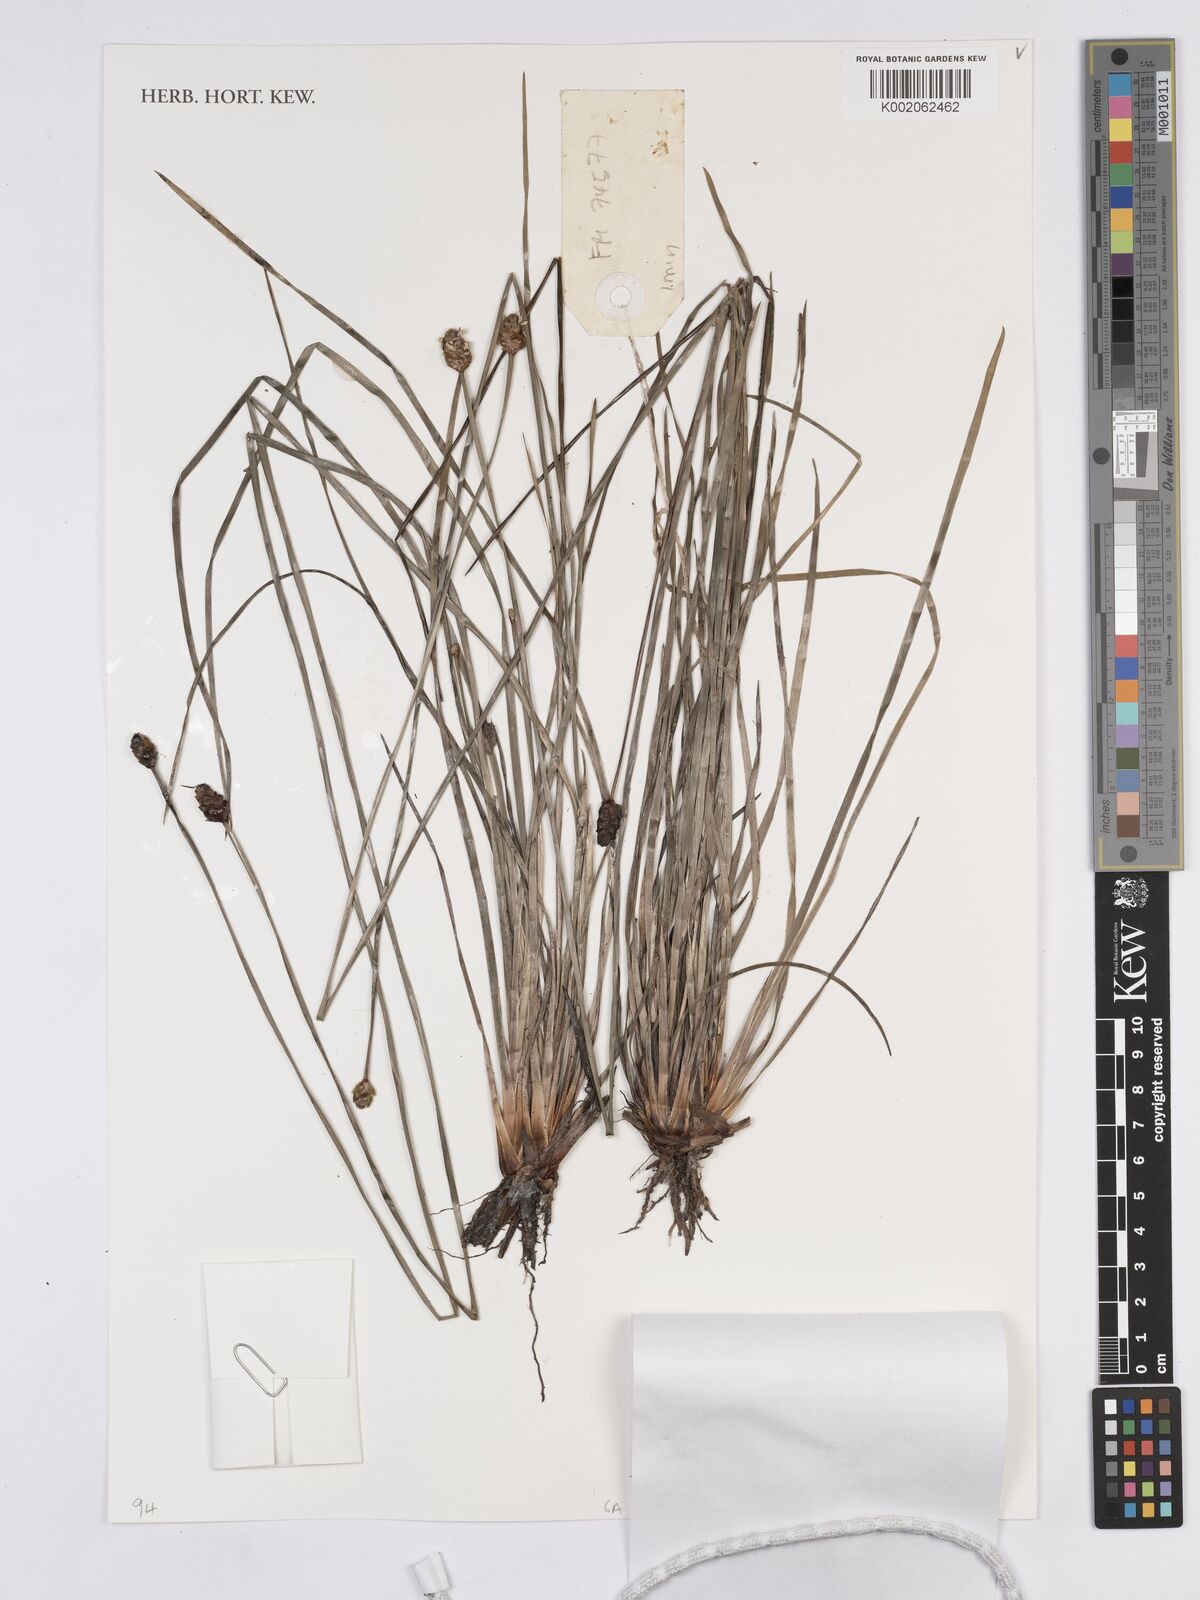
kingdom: Plantae
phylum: Tracheophyta
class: Liliopsida
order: Poales
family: Xyridaceae
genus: Xyris
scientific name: Xyris pauciflora
